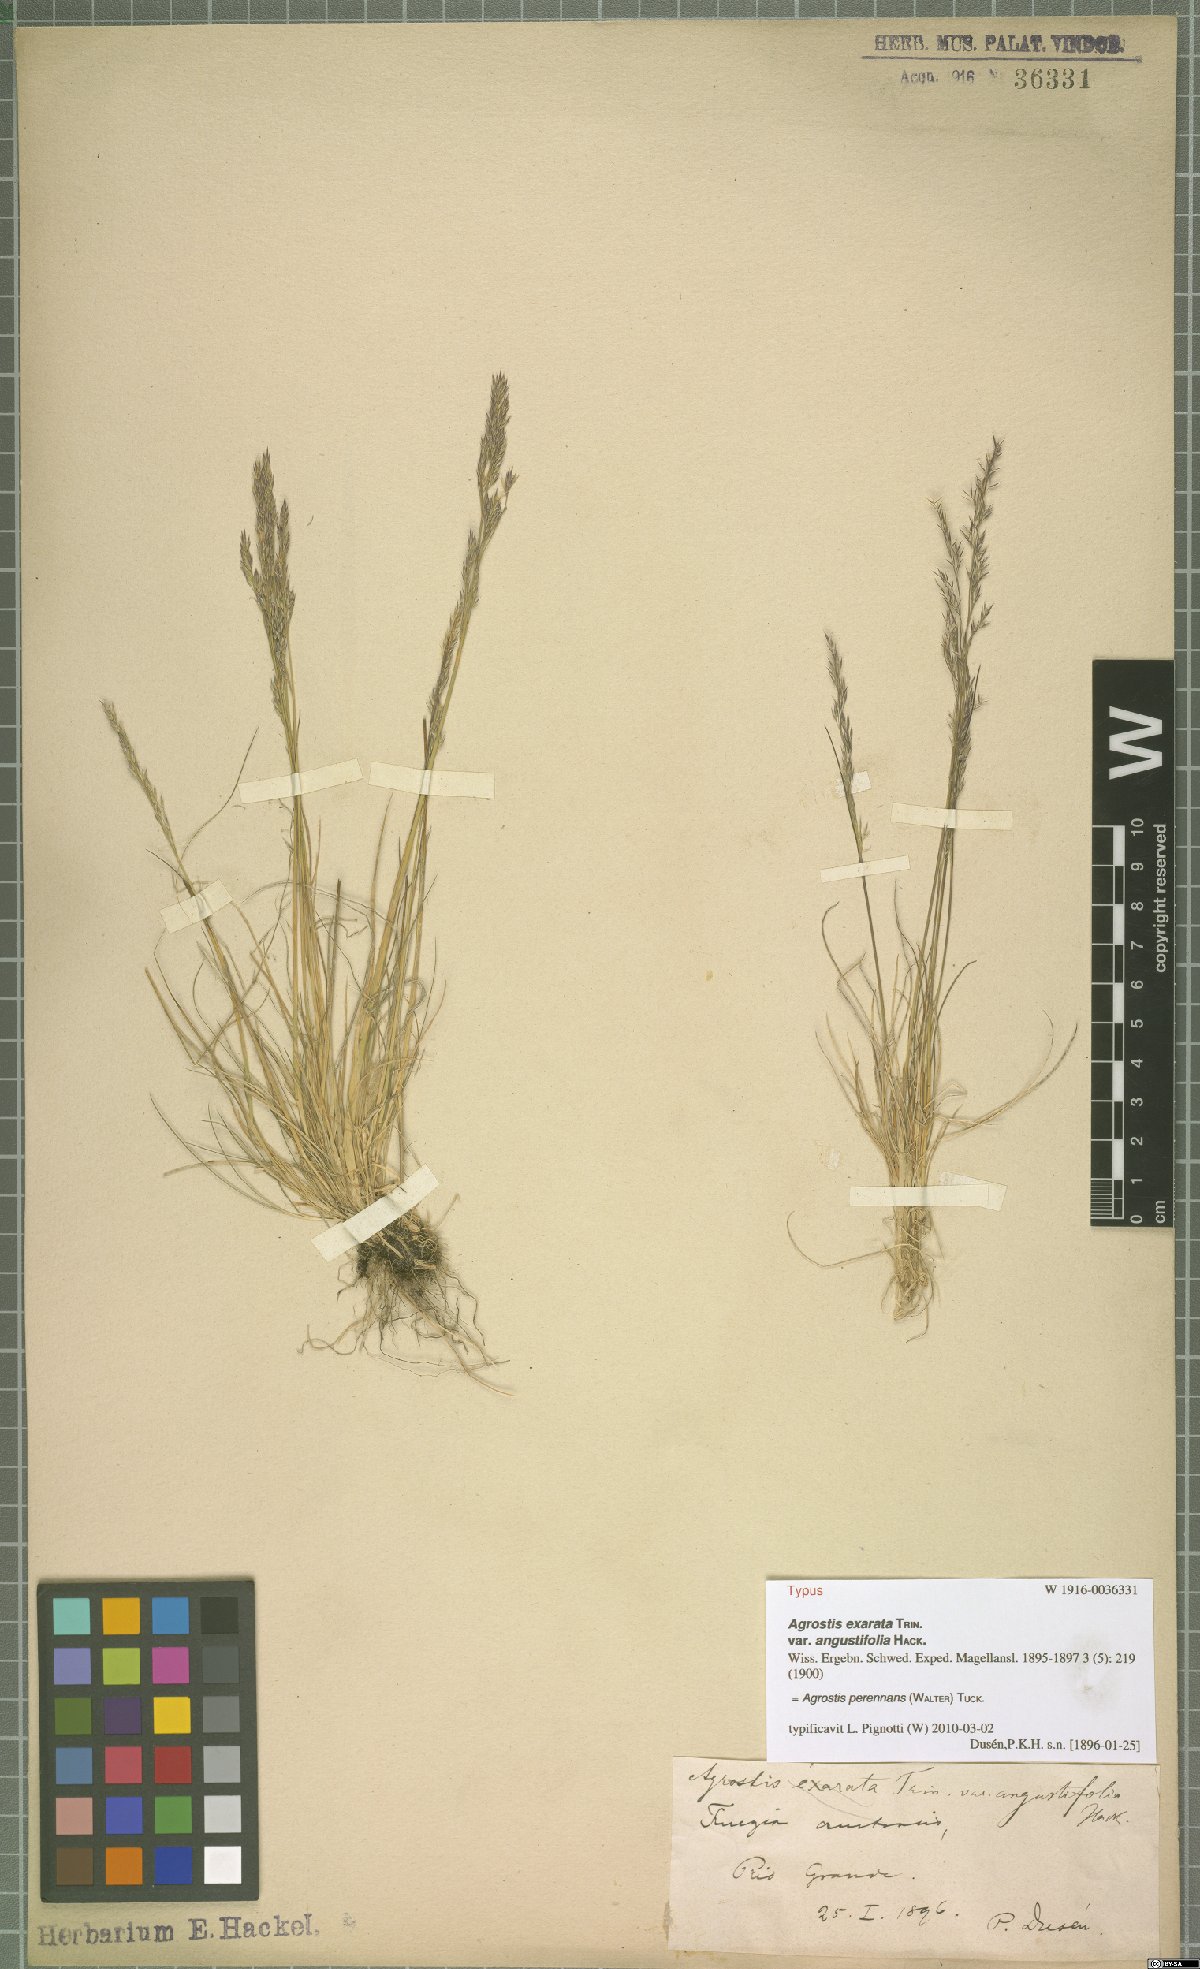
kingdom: Plantae
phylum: Tracheophyta
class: Liliopsida
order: Poales
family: Poaceae
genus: Agrostis
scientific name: Agrostis perennans
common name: Autumn bent
